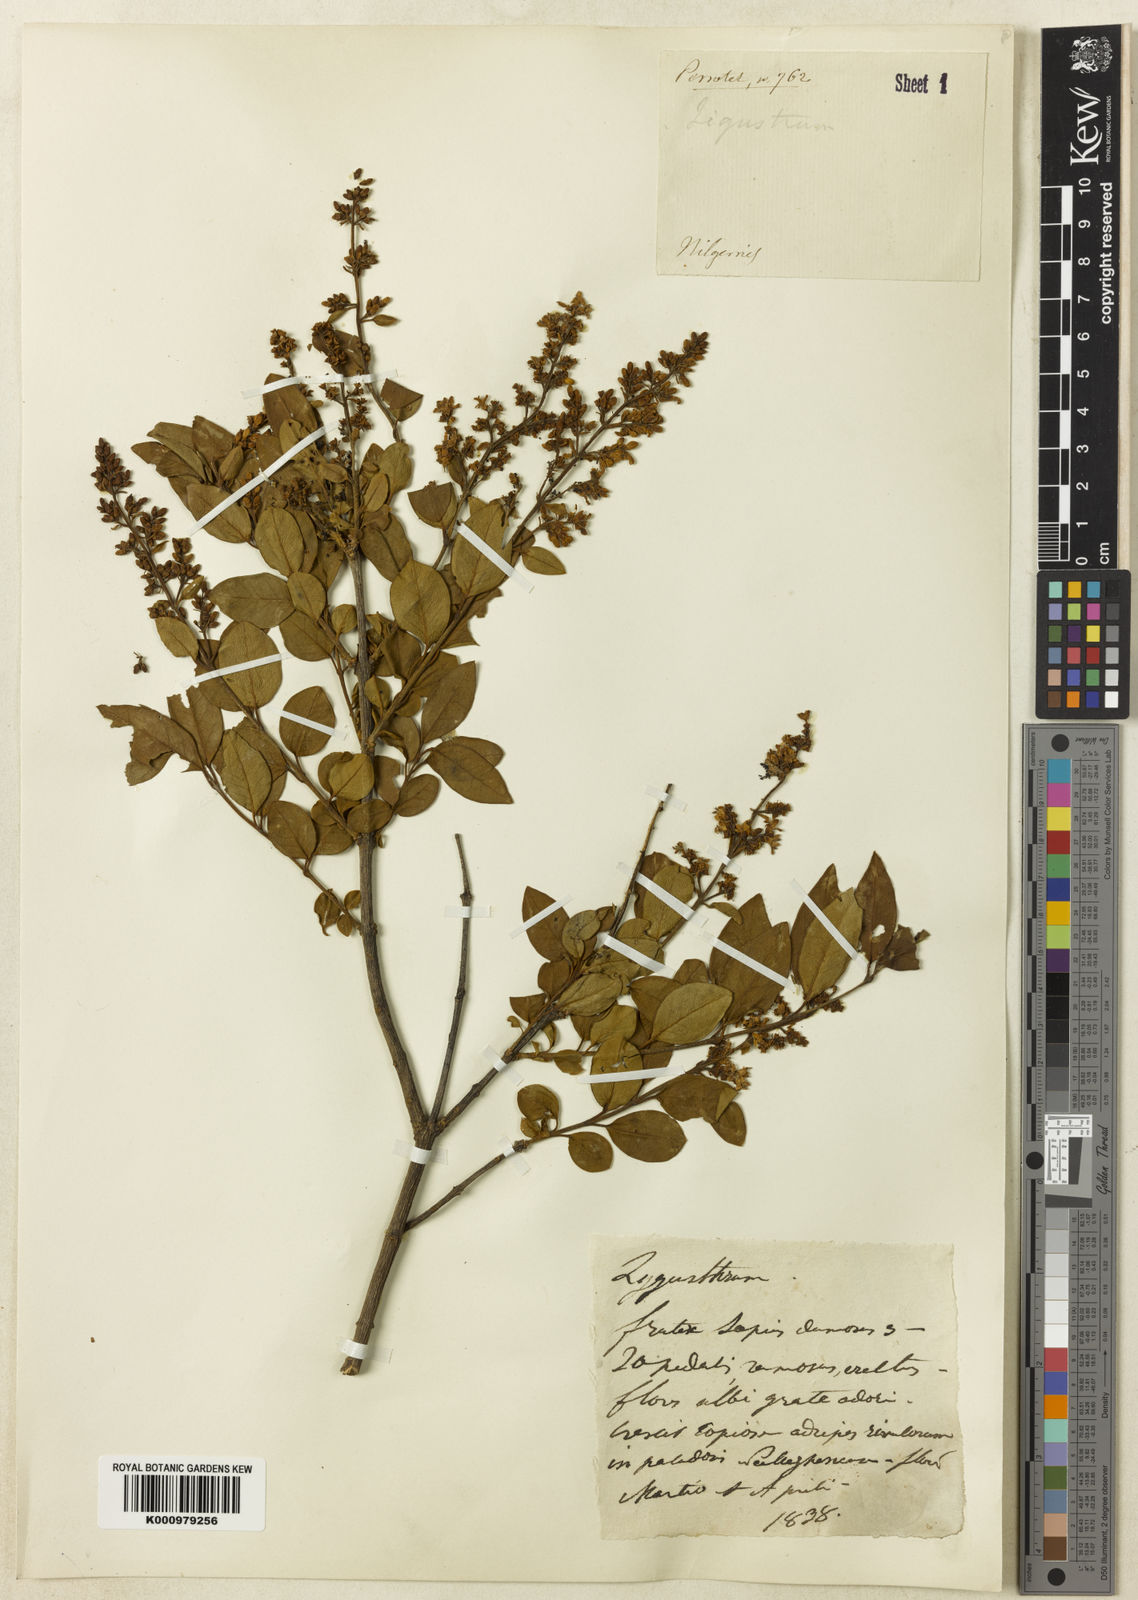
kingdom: Plantae
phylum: Tracheophyta
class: Magnoliopsida
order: Lamiales
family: Oleaceae
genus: Ligustrum
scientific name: Ligustrum robustum
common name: Tree privet
